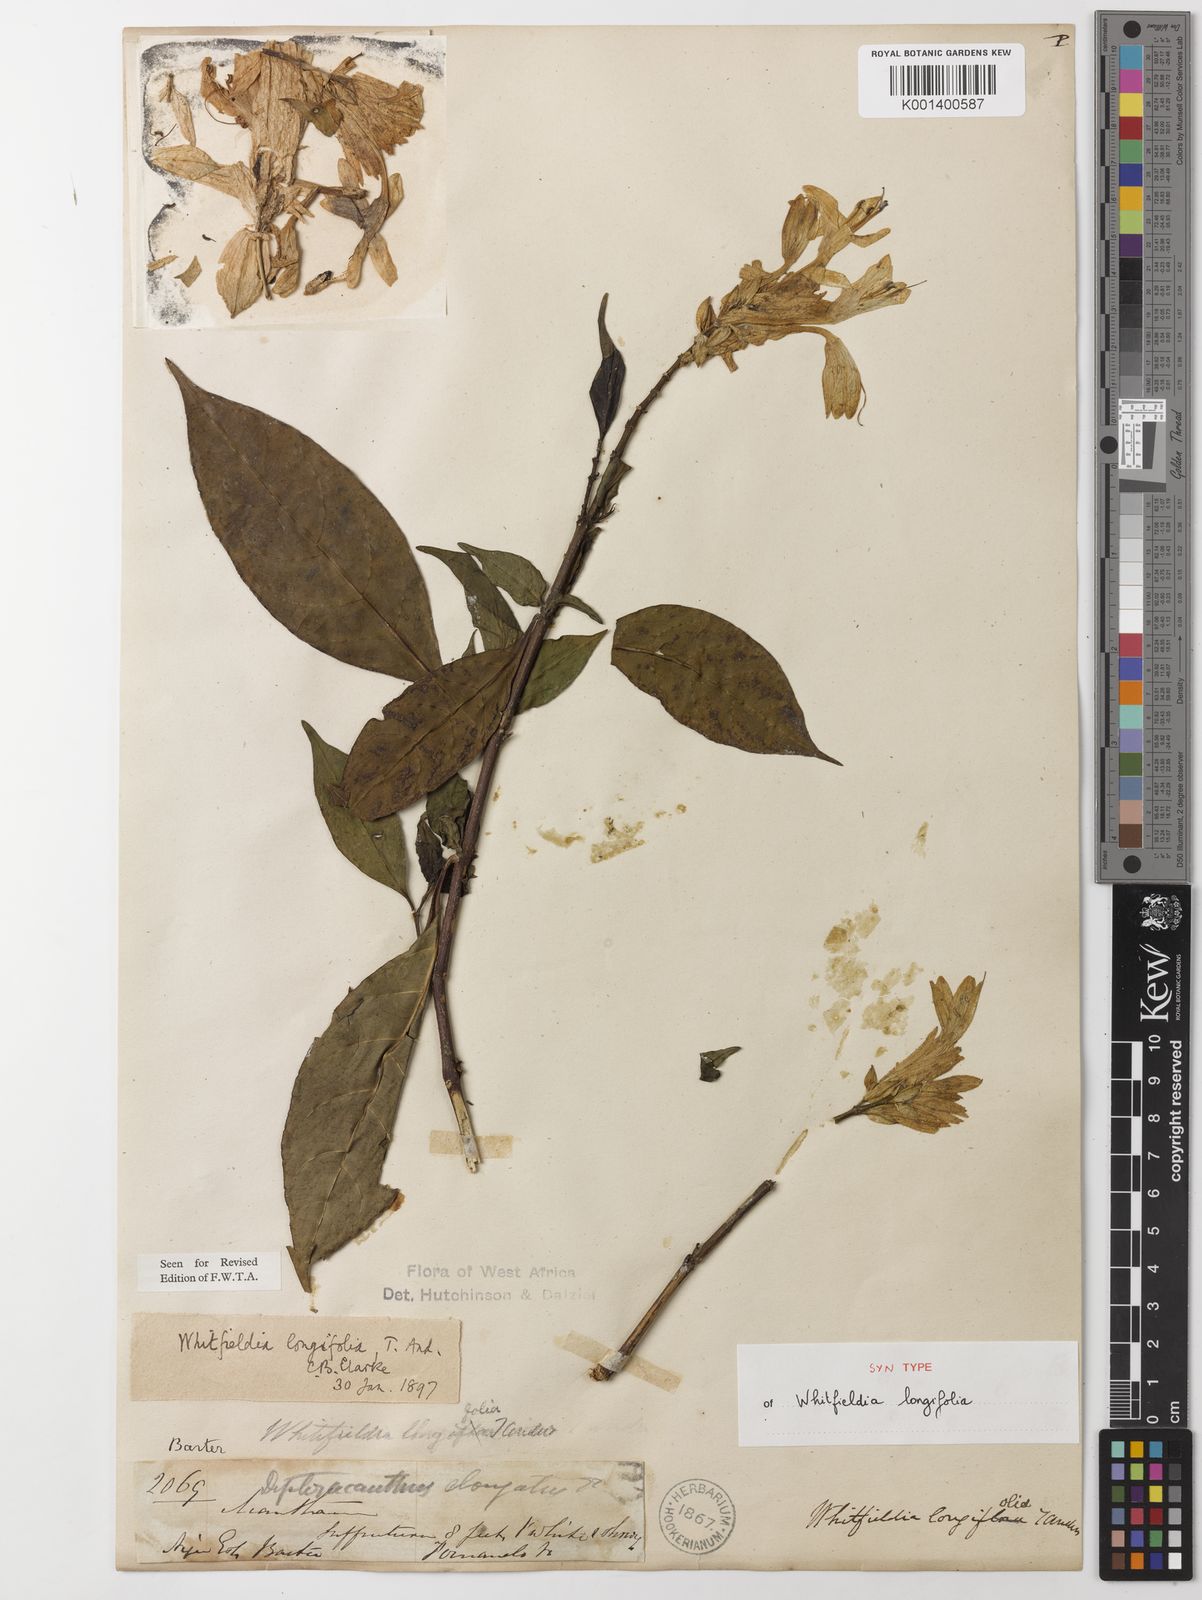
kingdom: Plantae
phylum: Tracheophyta
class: Magnoliopsida
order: Lamiales
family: Acanthaceae
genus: Whitfieldia
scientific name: Whitfieldia elongata
